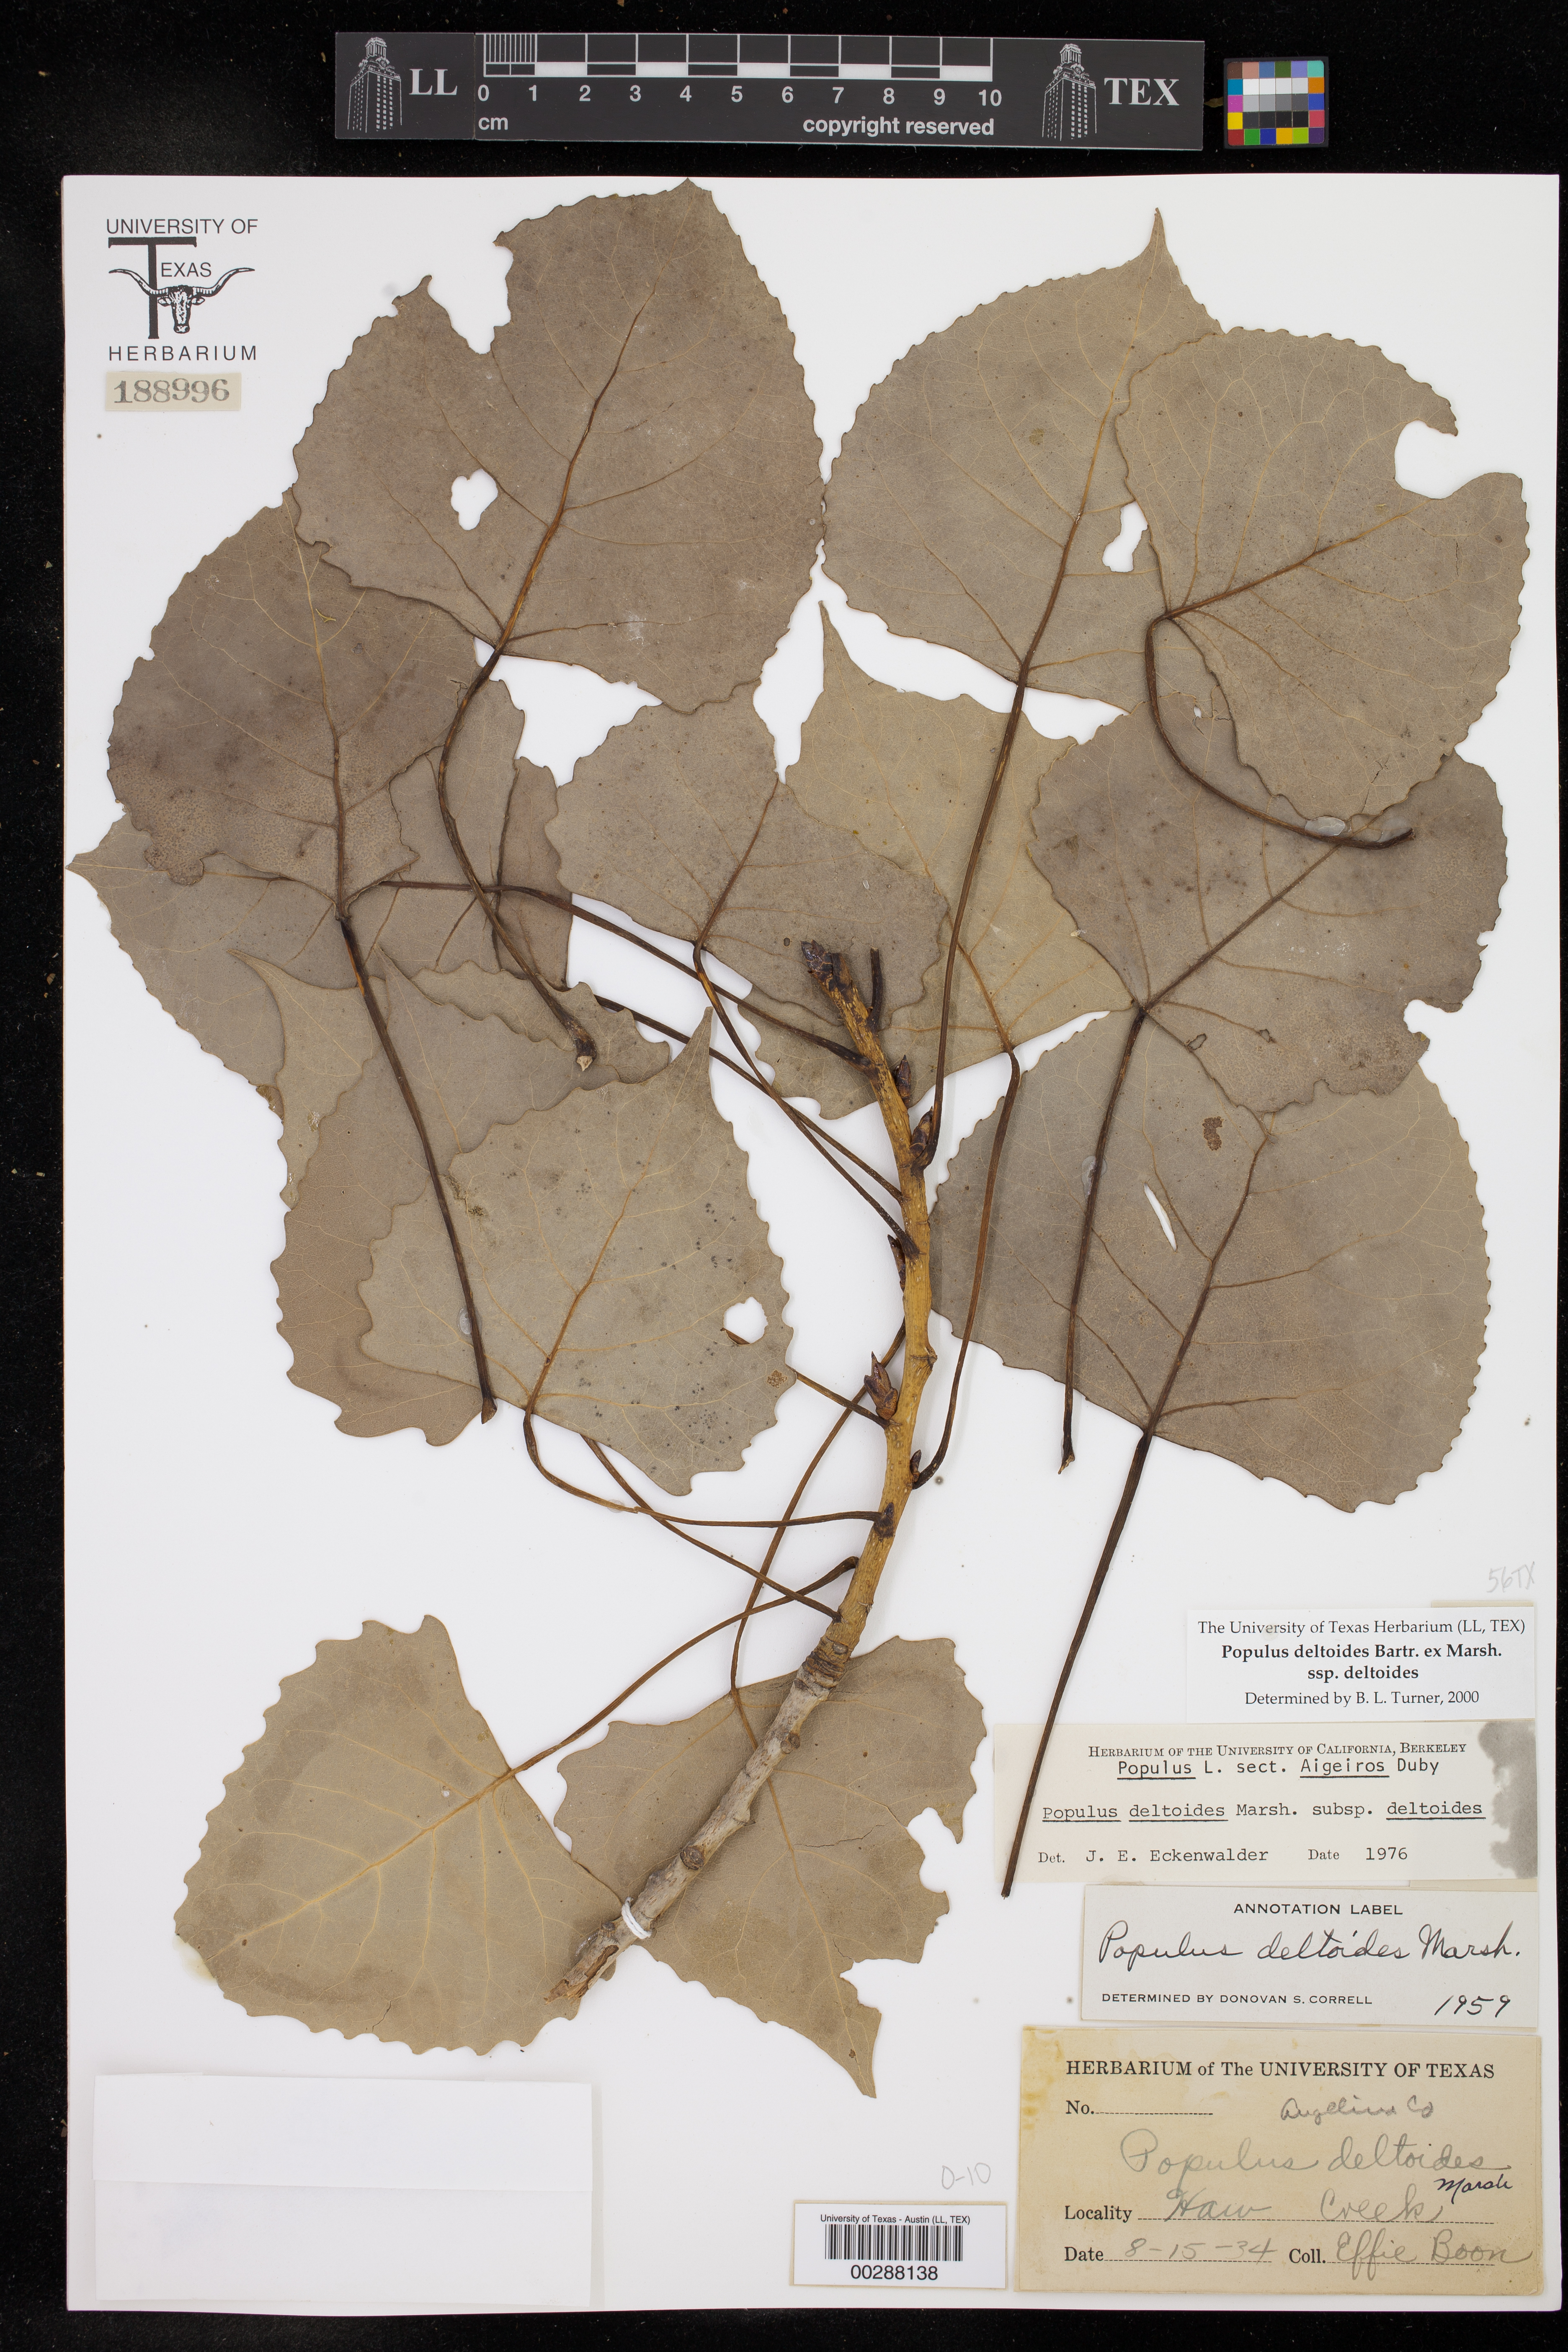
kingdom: Plantae
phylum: Tracheophyta
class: Magnoliopsida
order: Malpighiales
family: Salicaceae
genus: Populus
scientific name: Populus deltoides
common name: Eastern cottonwood
